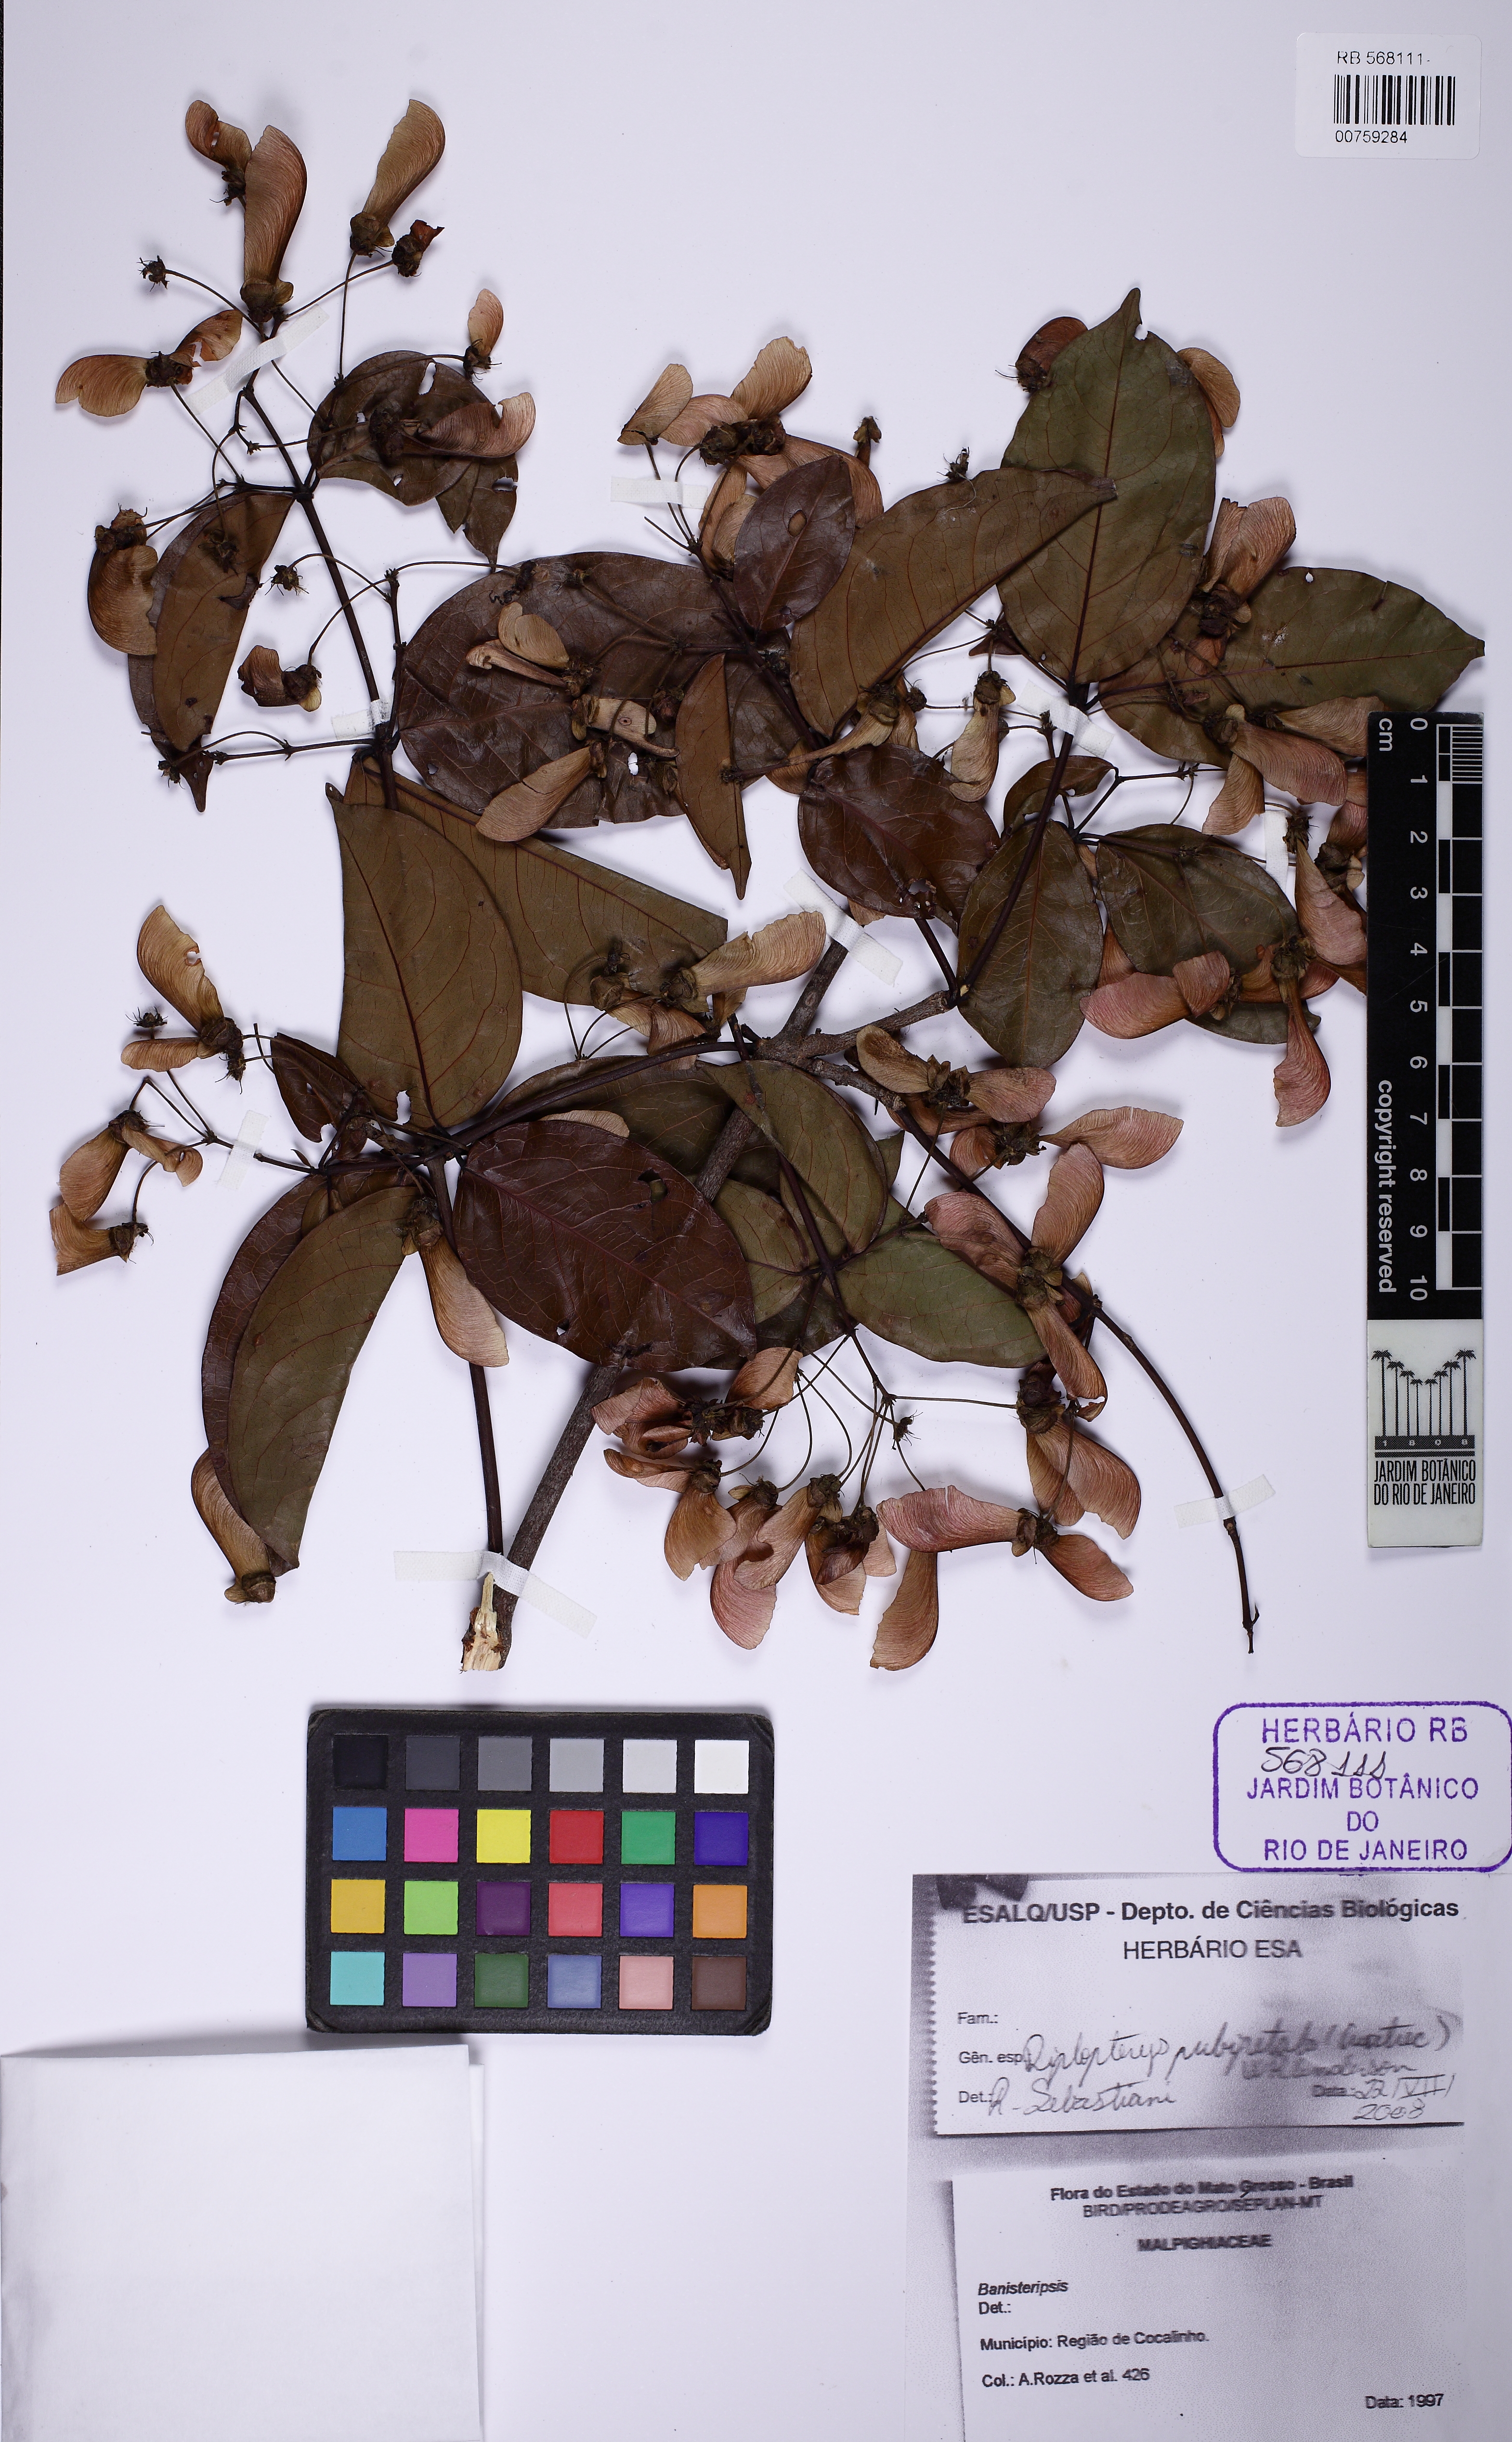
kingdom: Plantae
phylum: Tracheophyta
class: Magnoliopsida
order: Malpighiales
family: Malpighiaceae
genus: Diplopterys
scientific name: Diplopterys pubipetala
